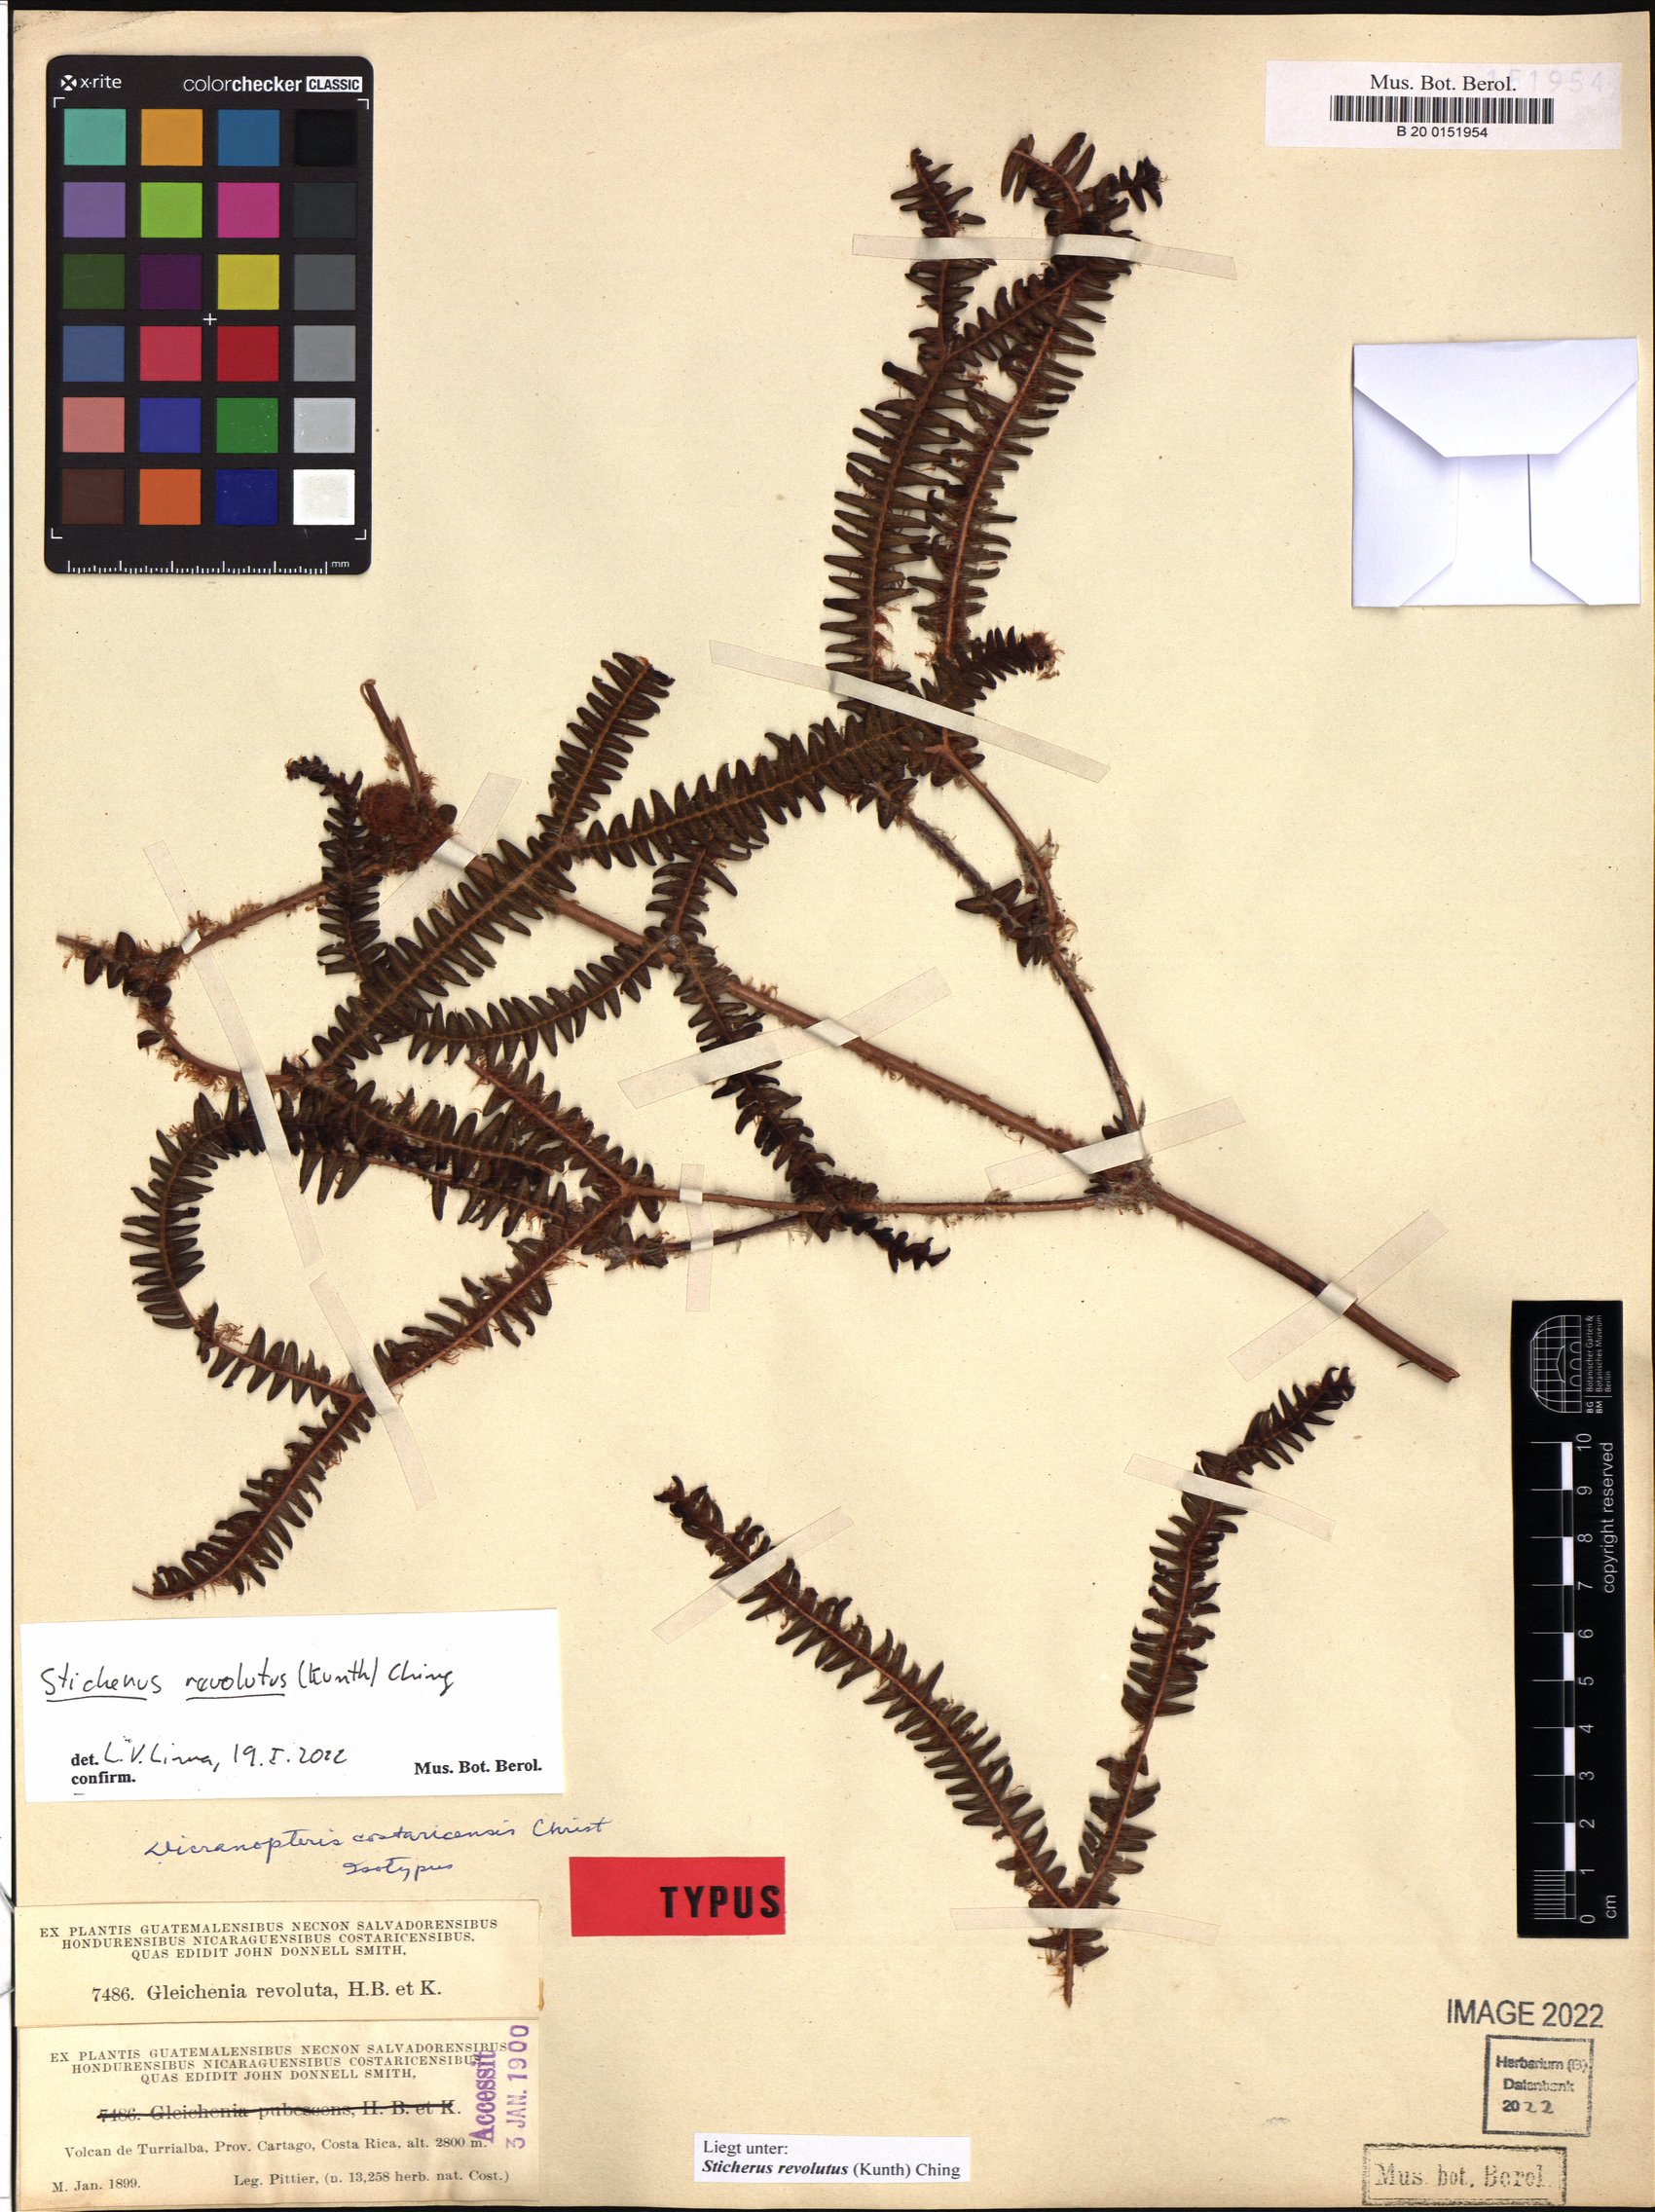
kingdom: Plantae
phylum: Tracheophyta
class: Polypodiopsida
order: Gleicheniales
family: Gleicheniaceae
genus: Sticherus
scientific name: Sticherus revolutus
